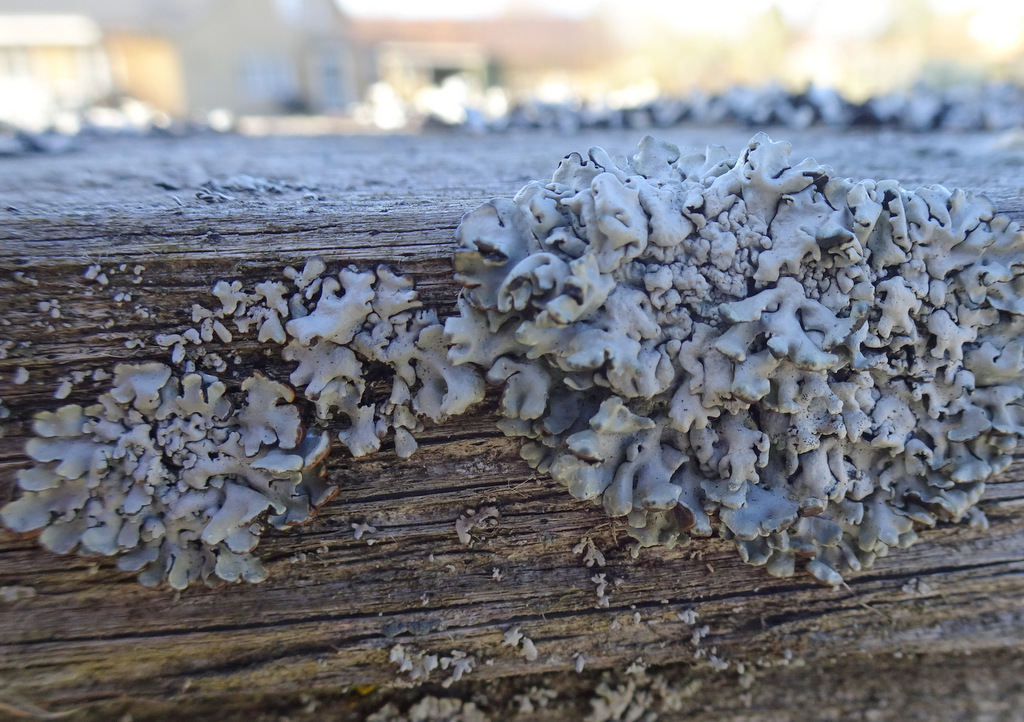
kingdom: Fungi
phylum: Ascomycota
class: Lecanoromycetes
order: Lecanorales
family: Parmeliaceae
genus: Hypogymnia
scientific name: Hypogymnia physodes
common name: almindelig kvistlav
